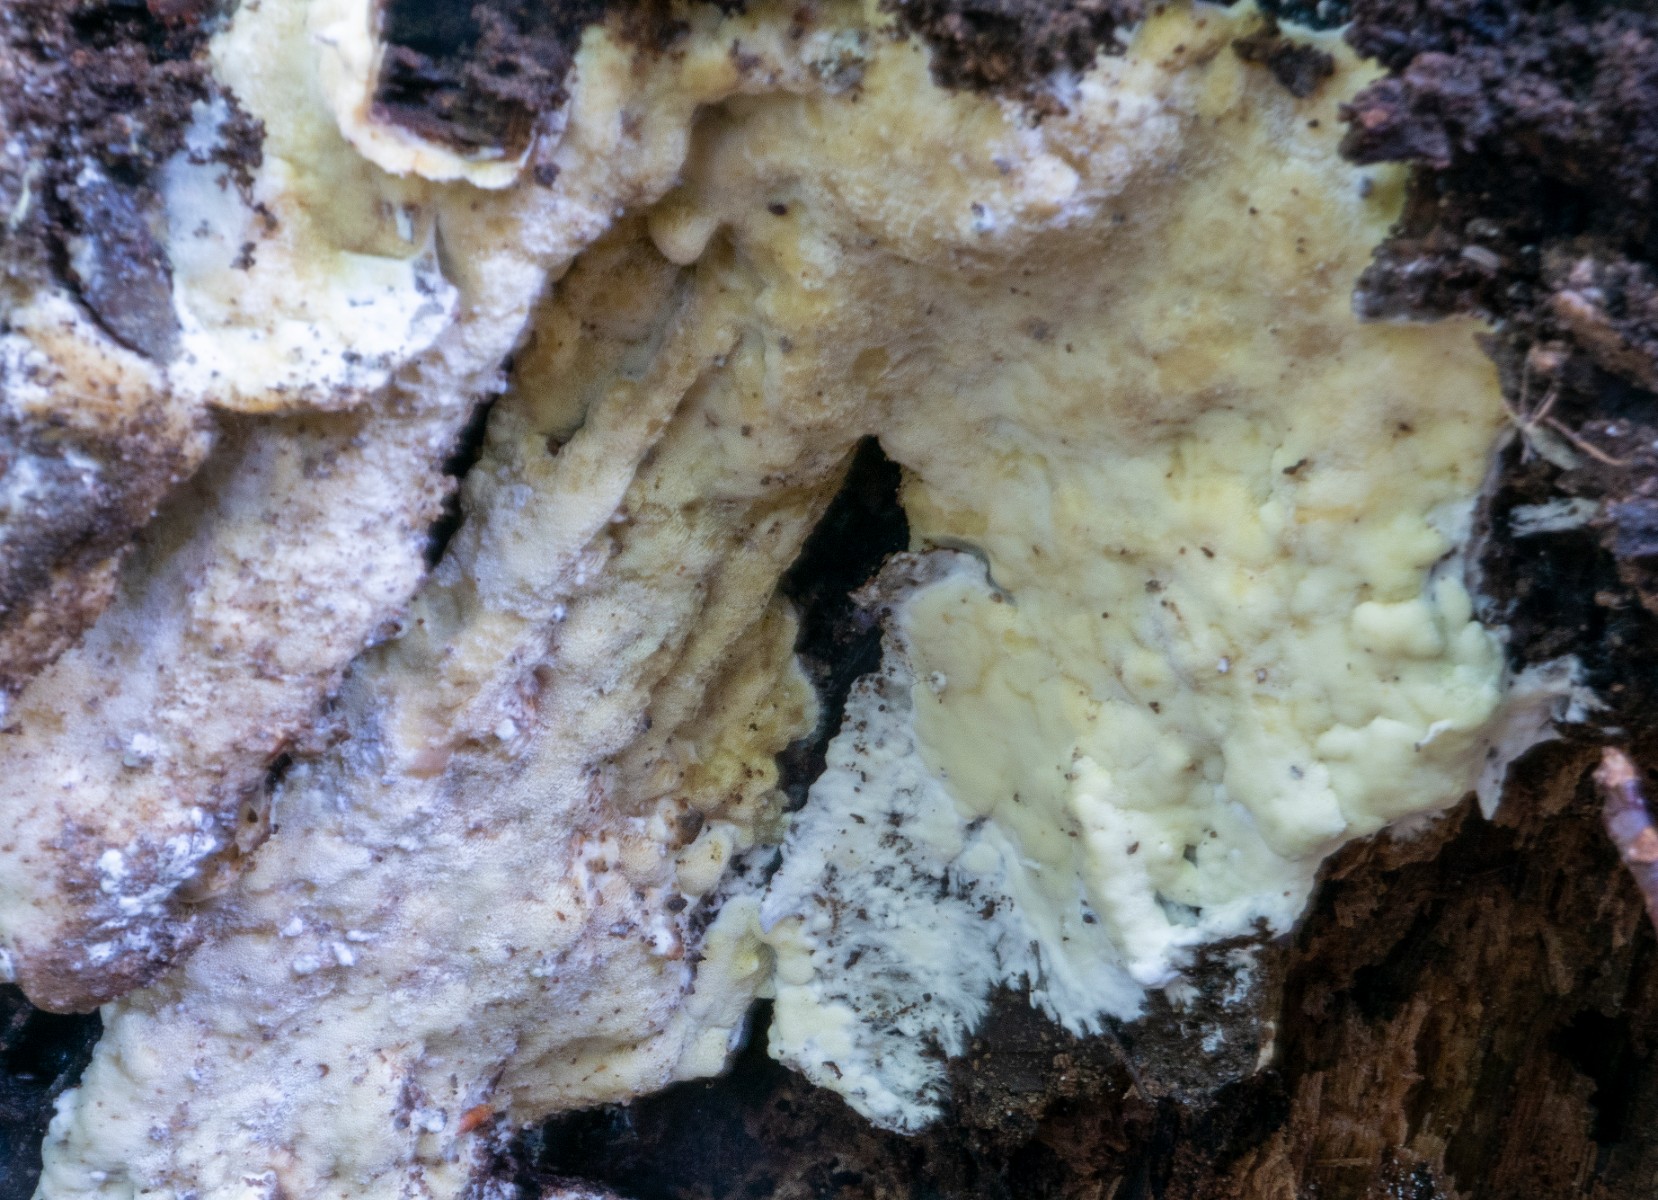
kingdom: Fungi
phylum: Basidiomycota
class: Agaricomycetes
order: Polyporales
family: Irpicaceae
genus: Gloeoporus
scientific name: Gloeoporus pannocinctus
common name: grøngul foldporesvamp
